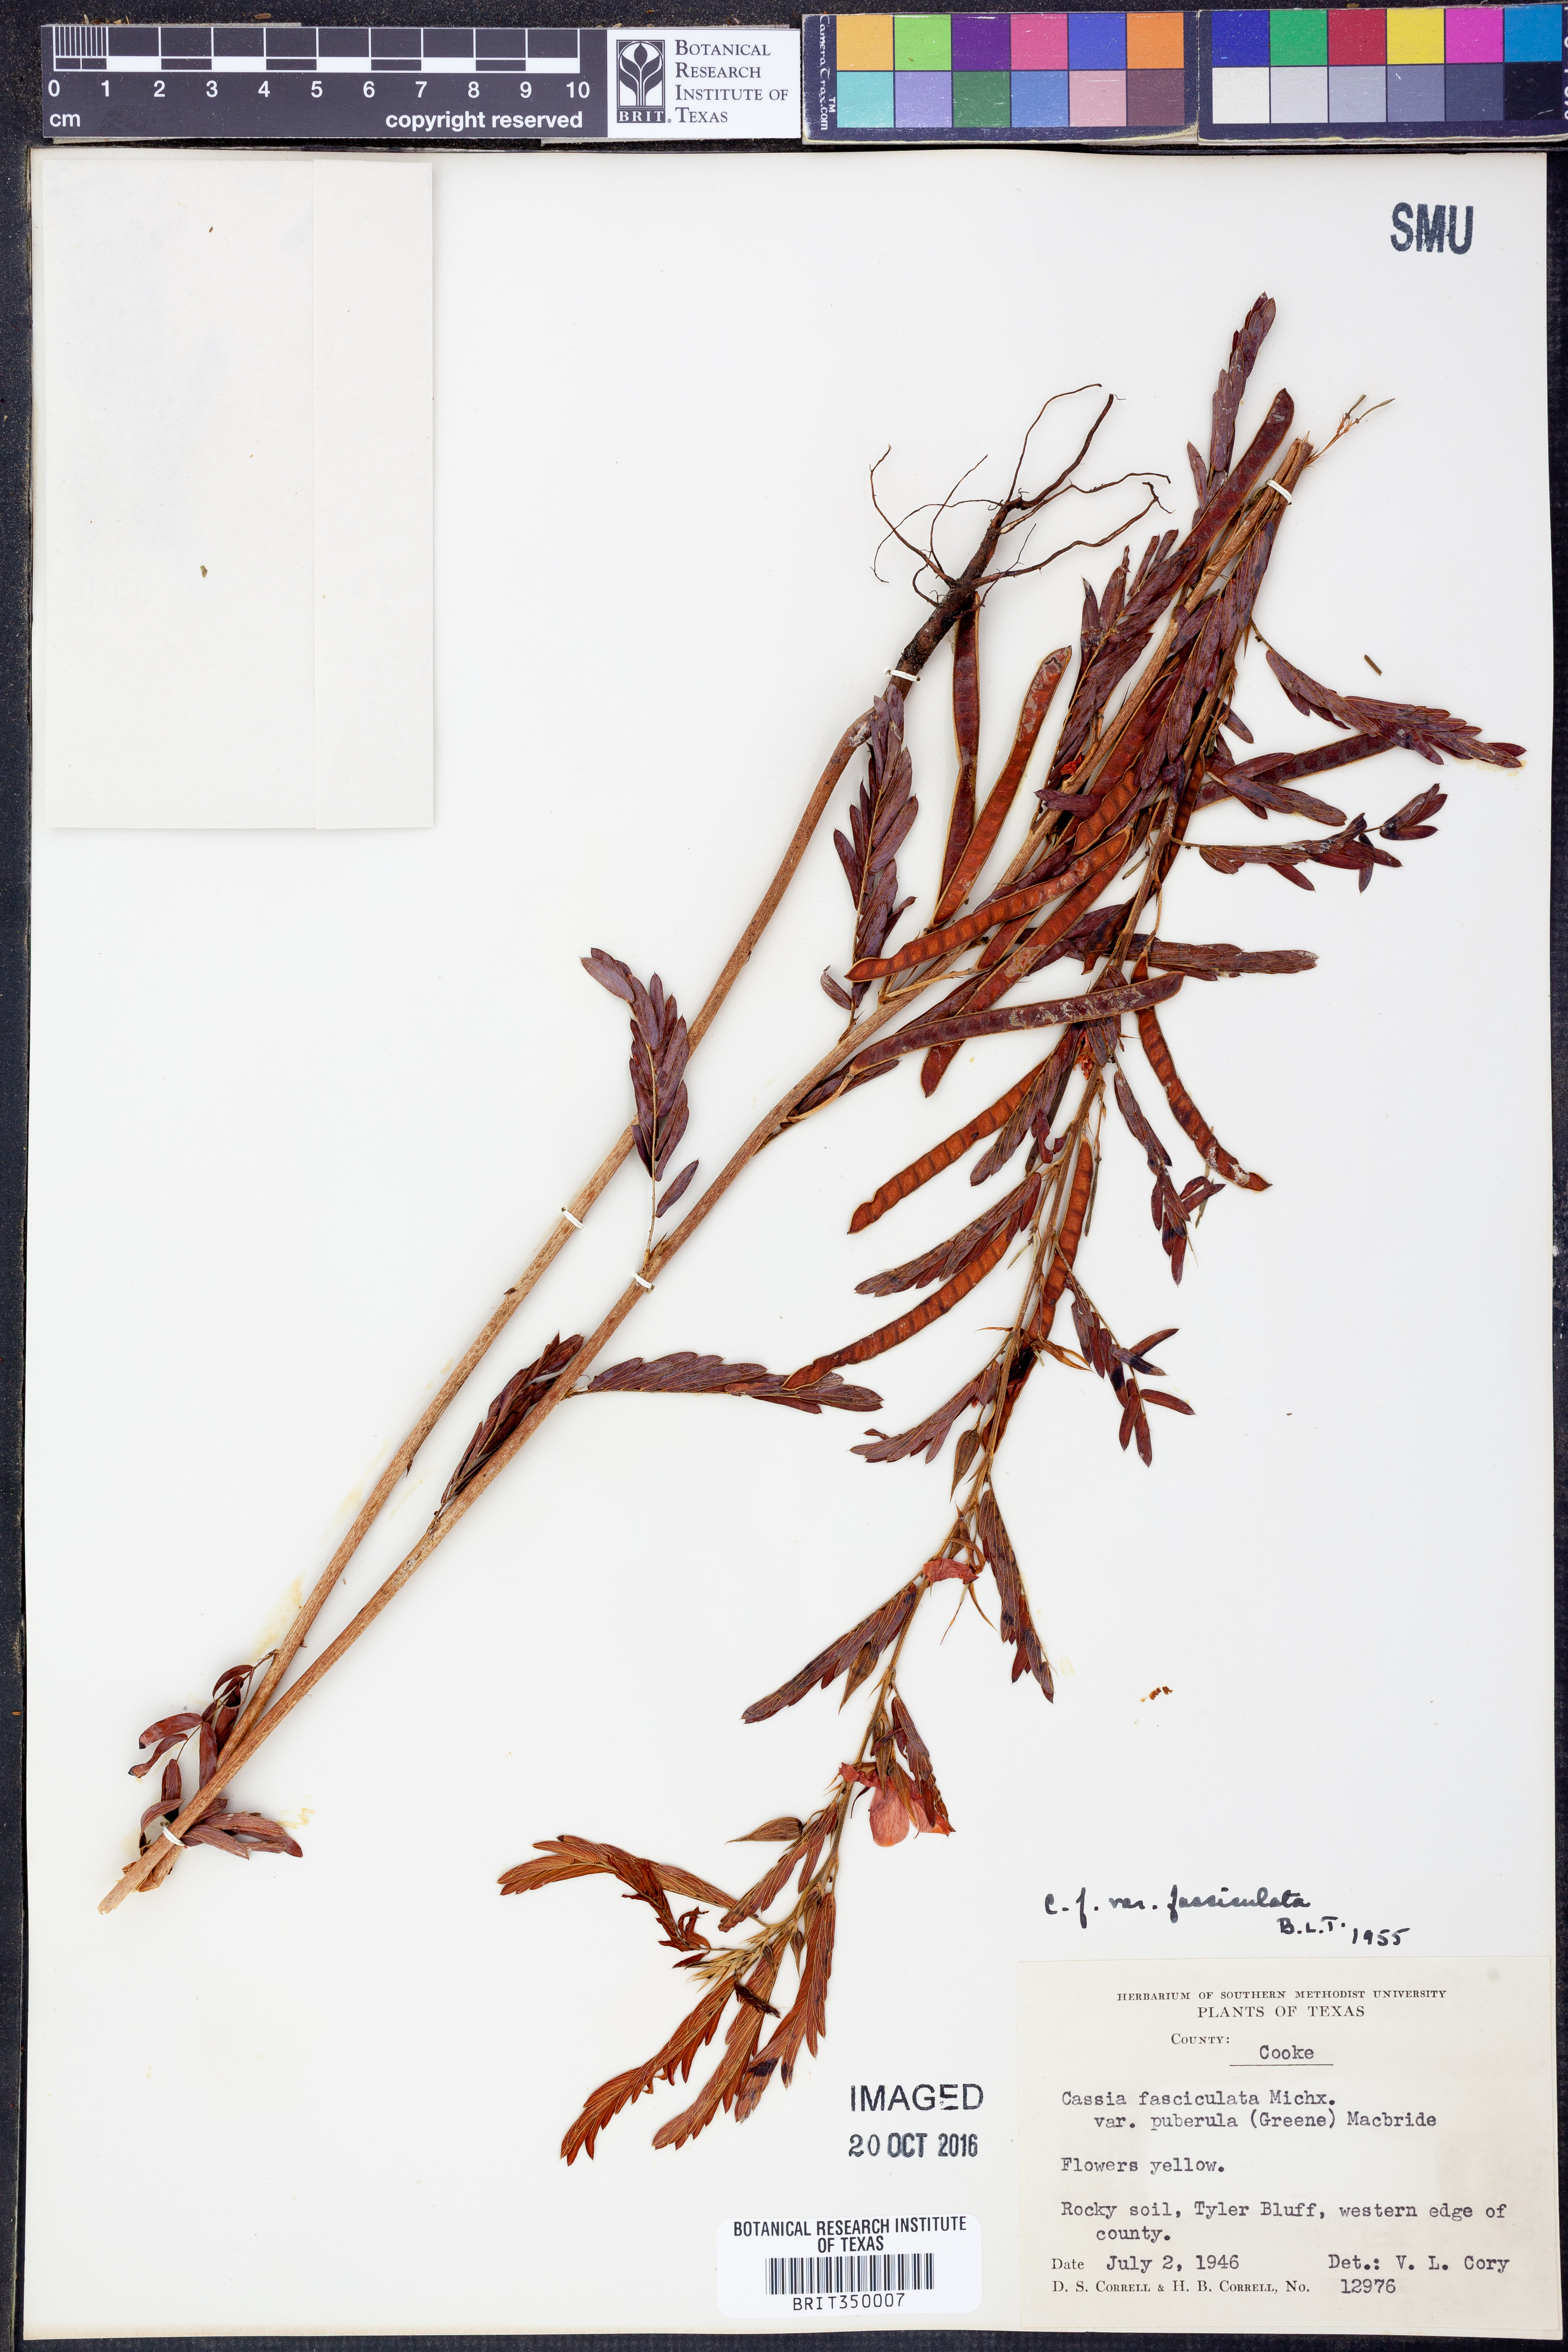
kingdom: Plantae
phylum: Tracheophyta
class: Magnoliopsida
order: Fabales
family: Fabaceae
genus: Chamaecrista
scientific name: Chamaecrista fasciculata
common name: Golden cassia
